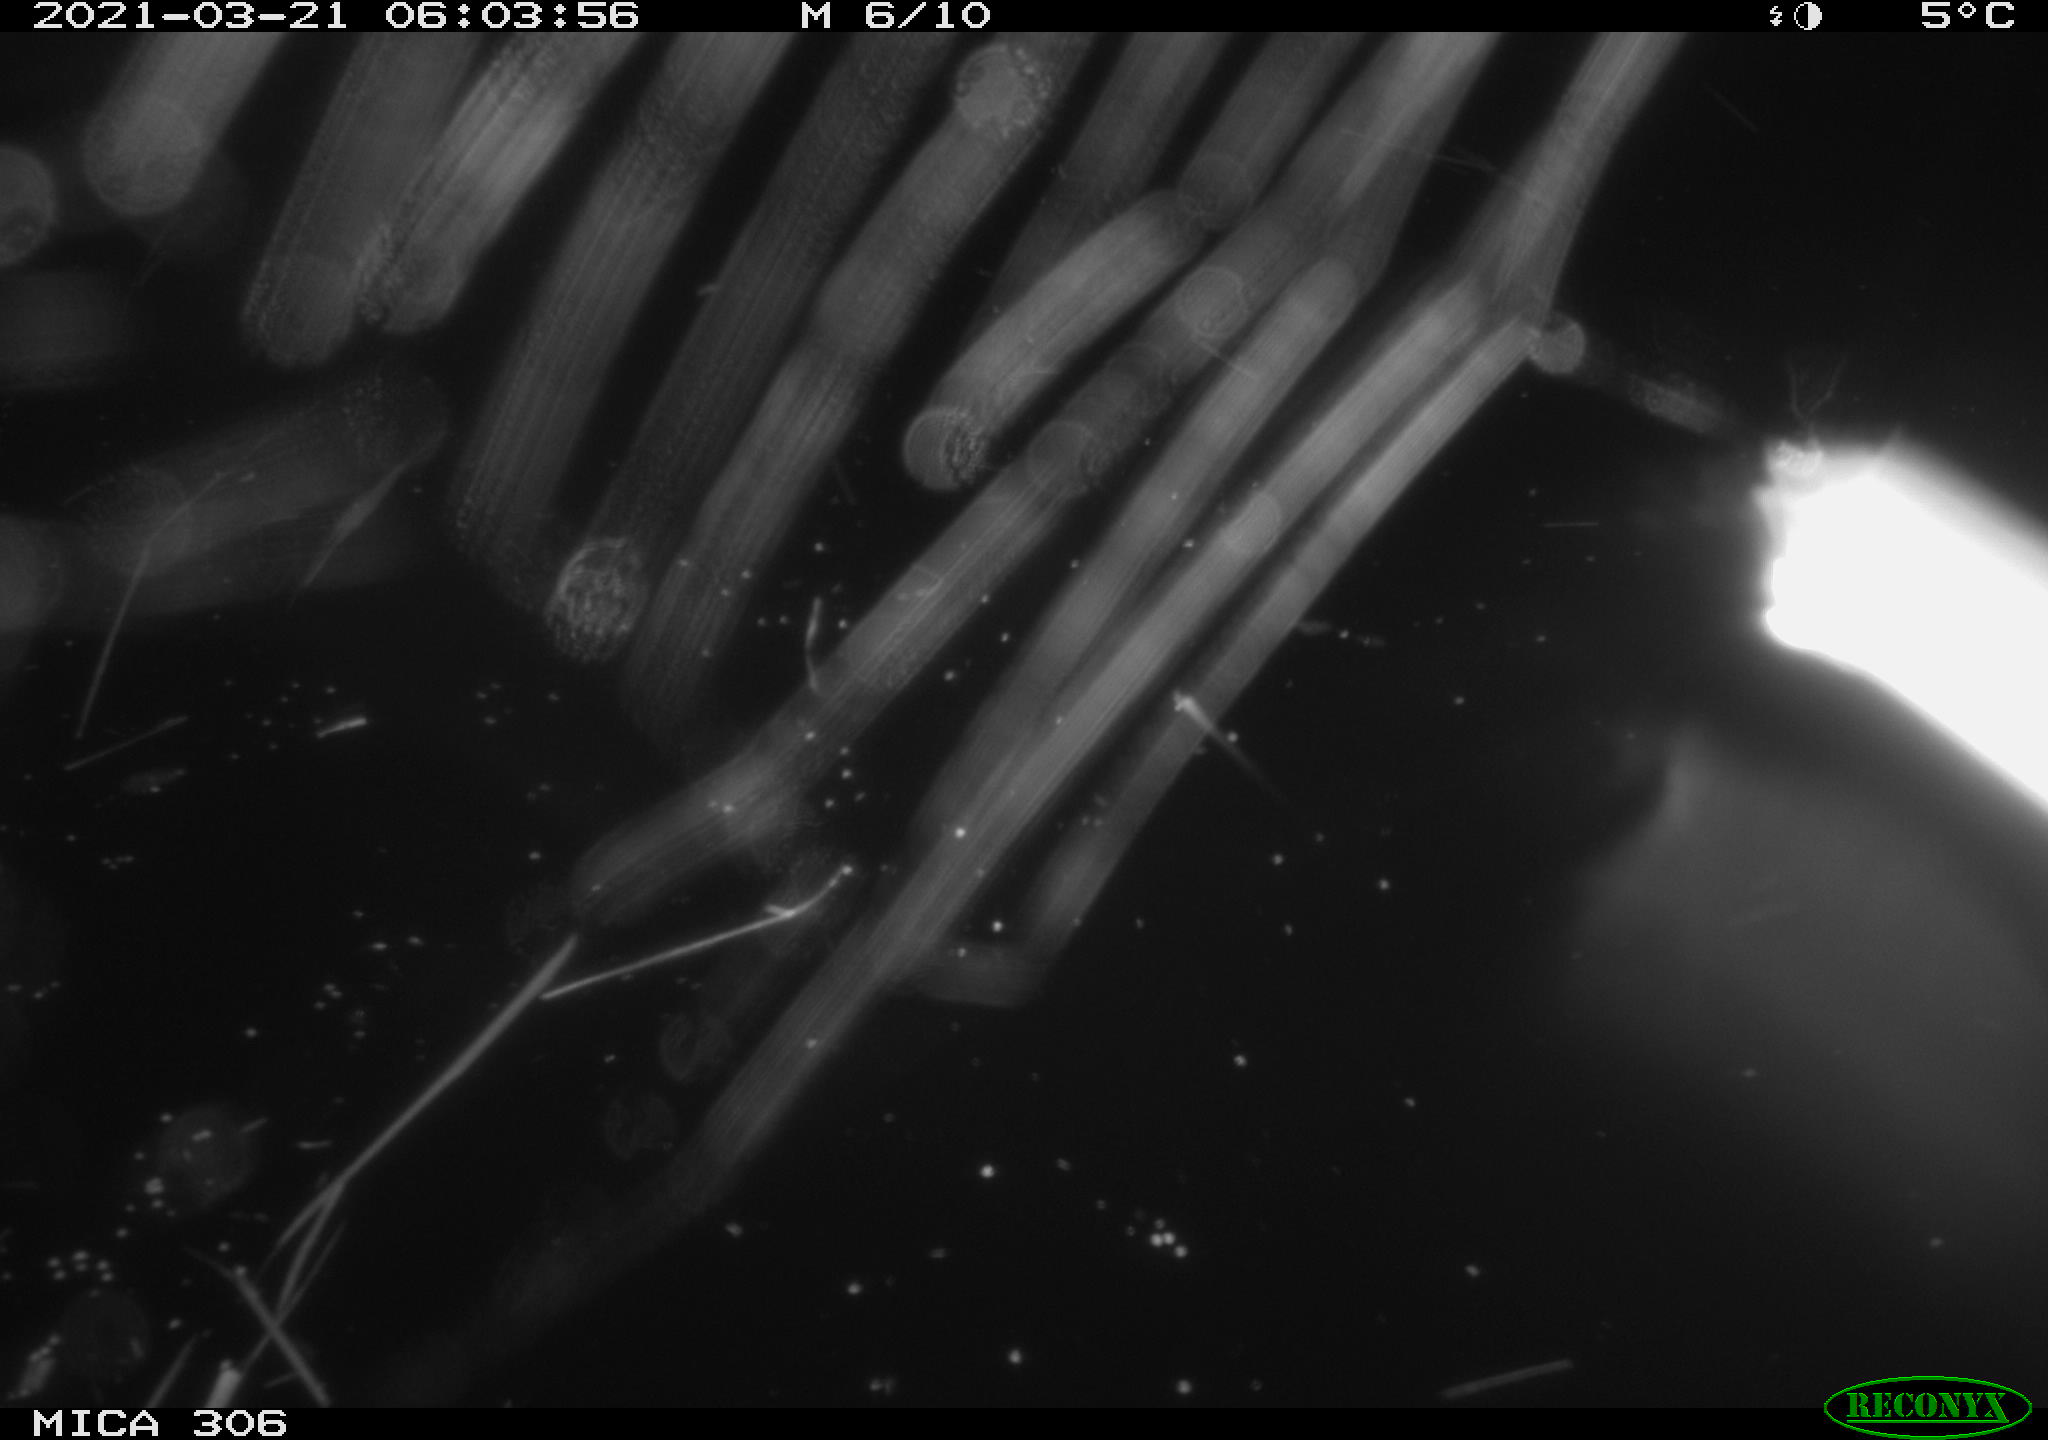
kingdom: Animalia
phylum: Chordata
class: Mammalia
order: Rodentia
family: Cricetidae
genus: Ondatra
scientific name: Ondatra zibethicus
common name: Muskrat
